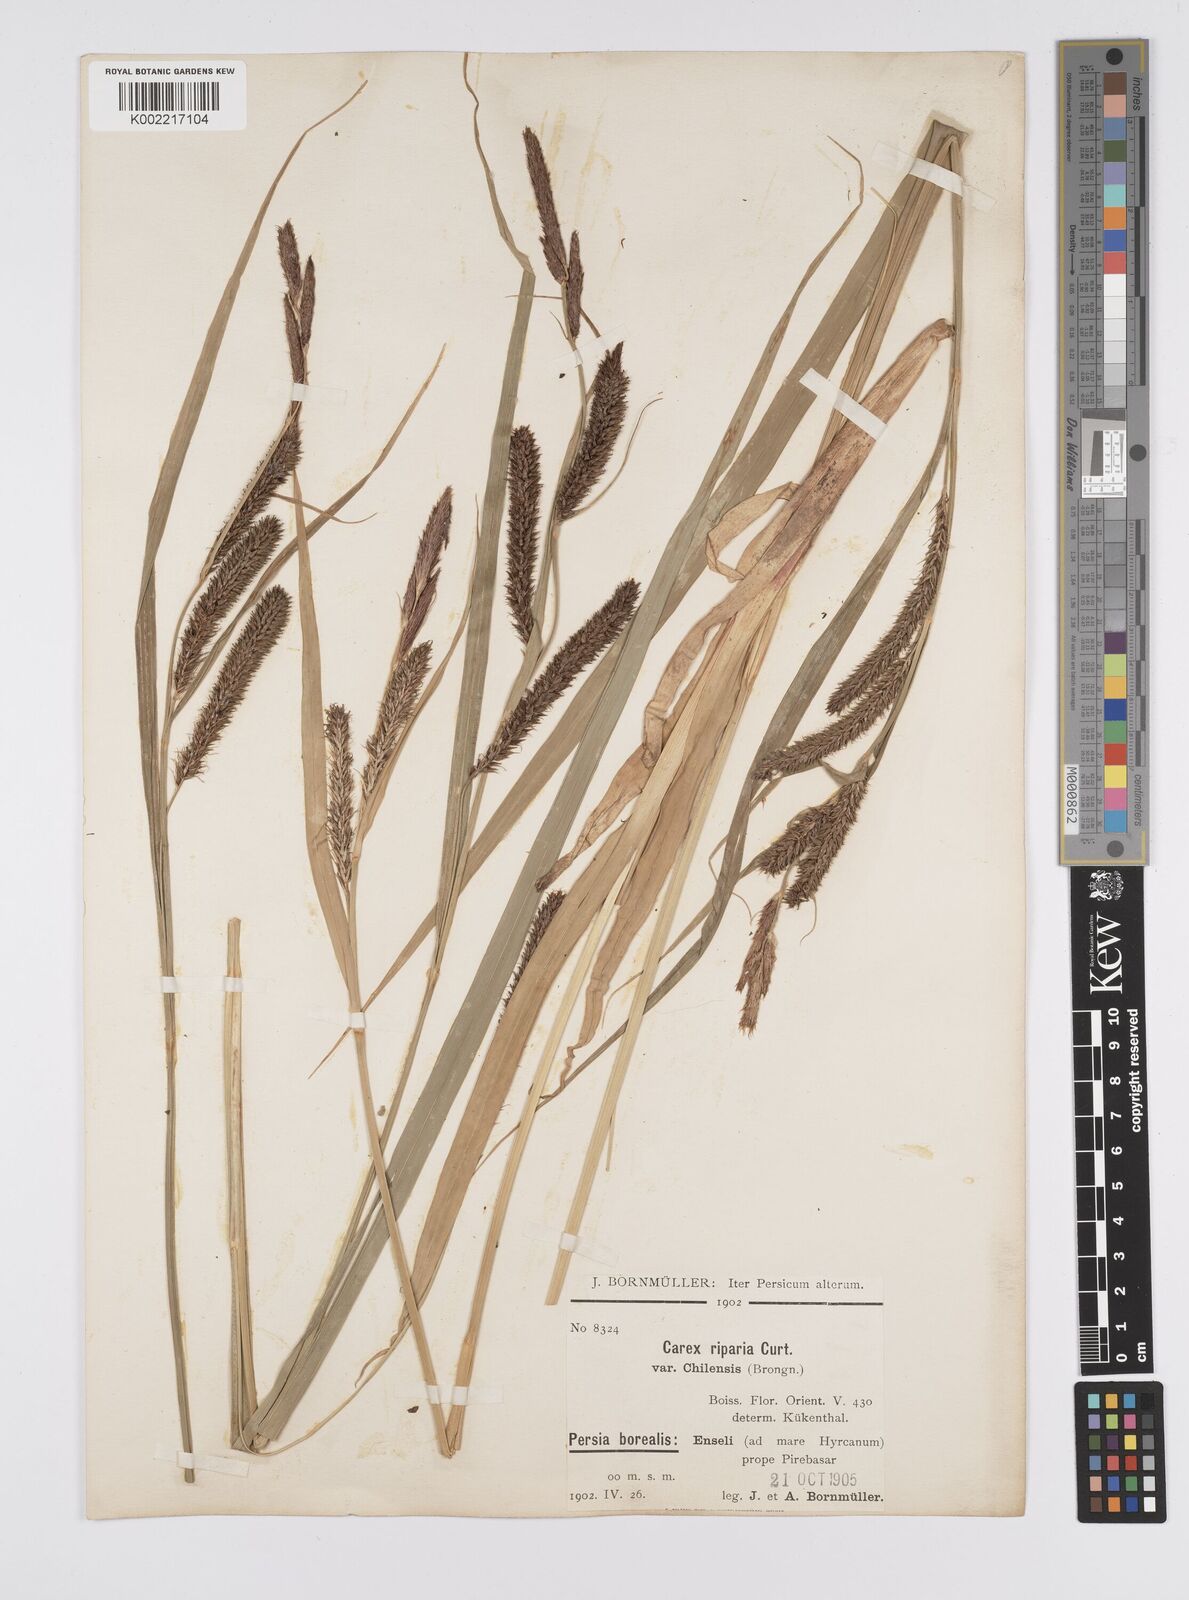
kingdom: Plantae
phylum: Tracheophyta
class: Liliopsida
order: Poales
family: Cyperaceae
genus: Carex
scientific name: Carex riparia
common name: Greater pond-sedge
